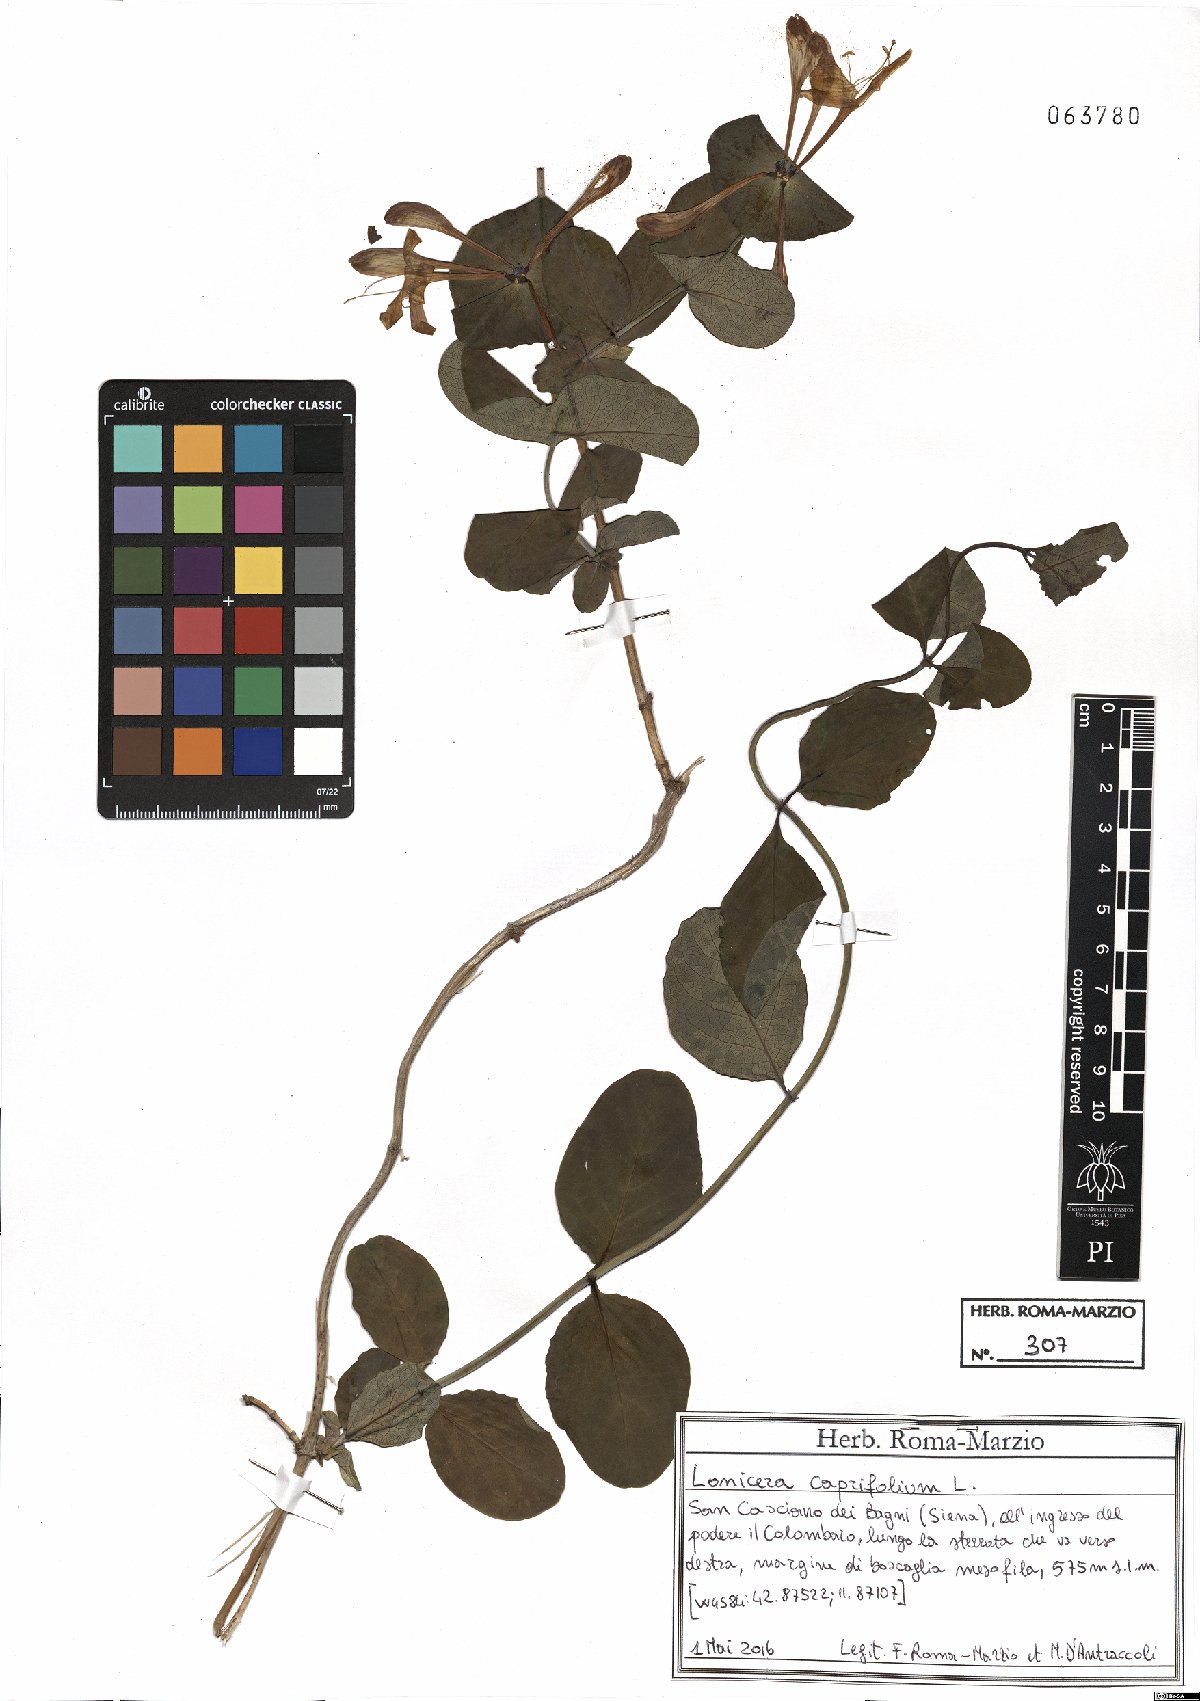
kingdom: Plantae
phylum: Tracheophyta
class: Magnoliopsida
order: Dipsacales
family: Caprifoliaceae
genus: Lonicera
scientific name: Lonicera caprifolium
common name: Perfoliate honeysuckle
